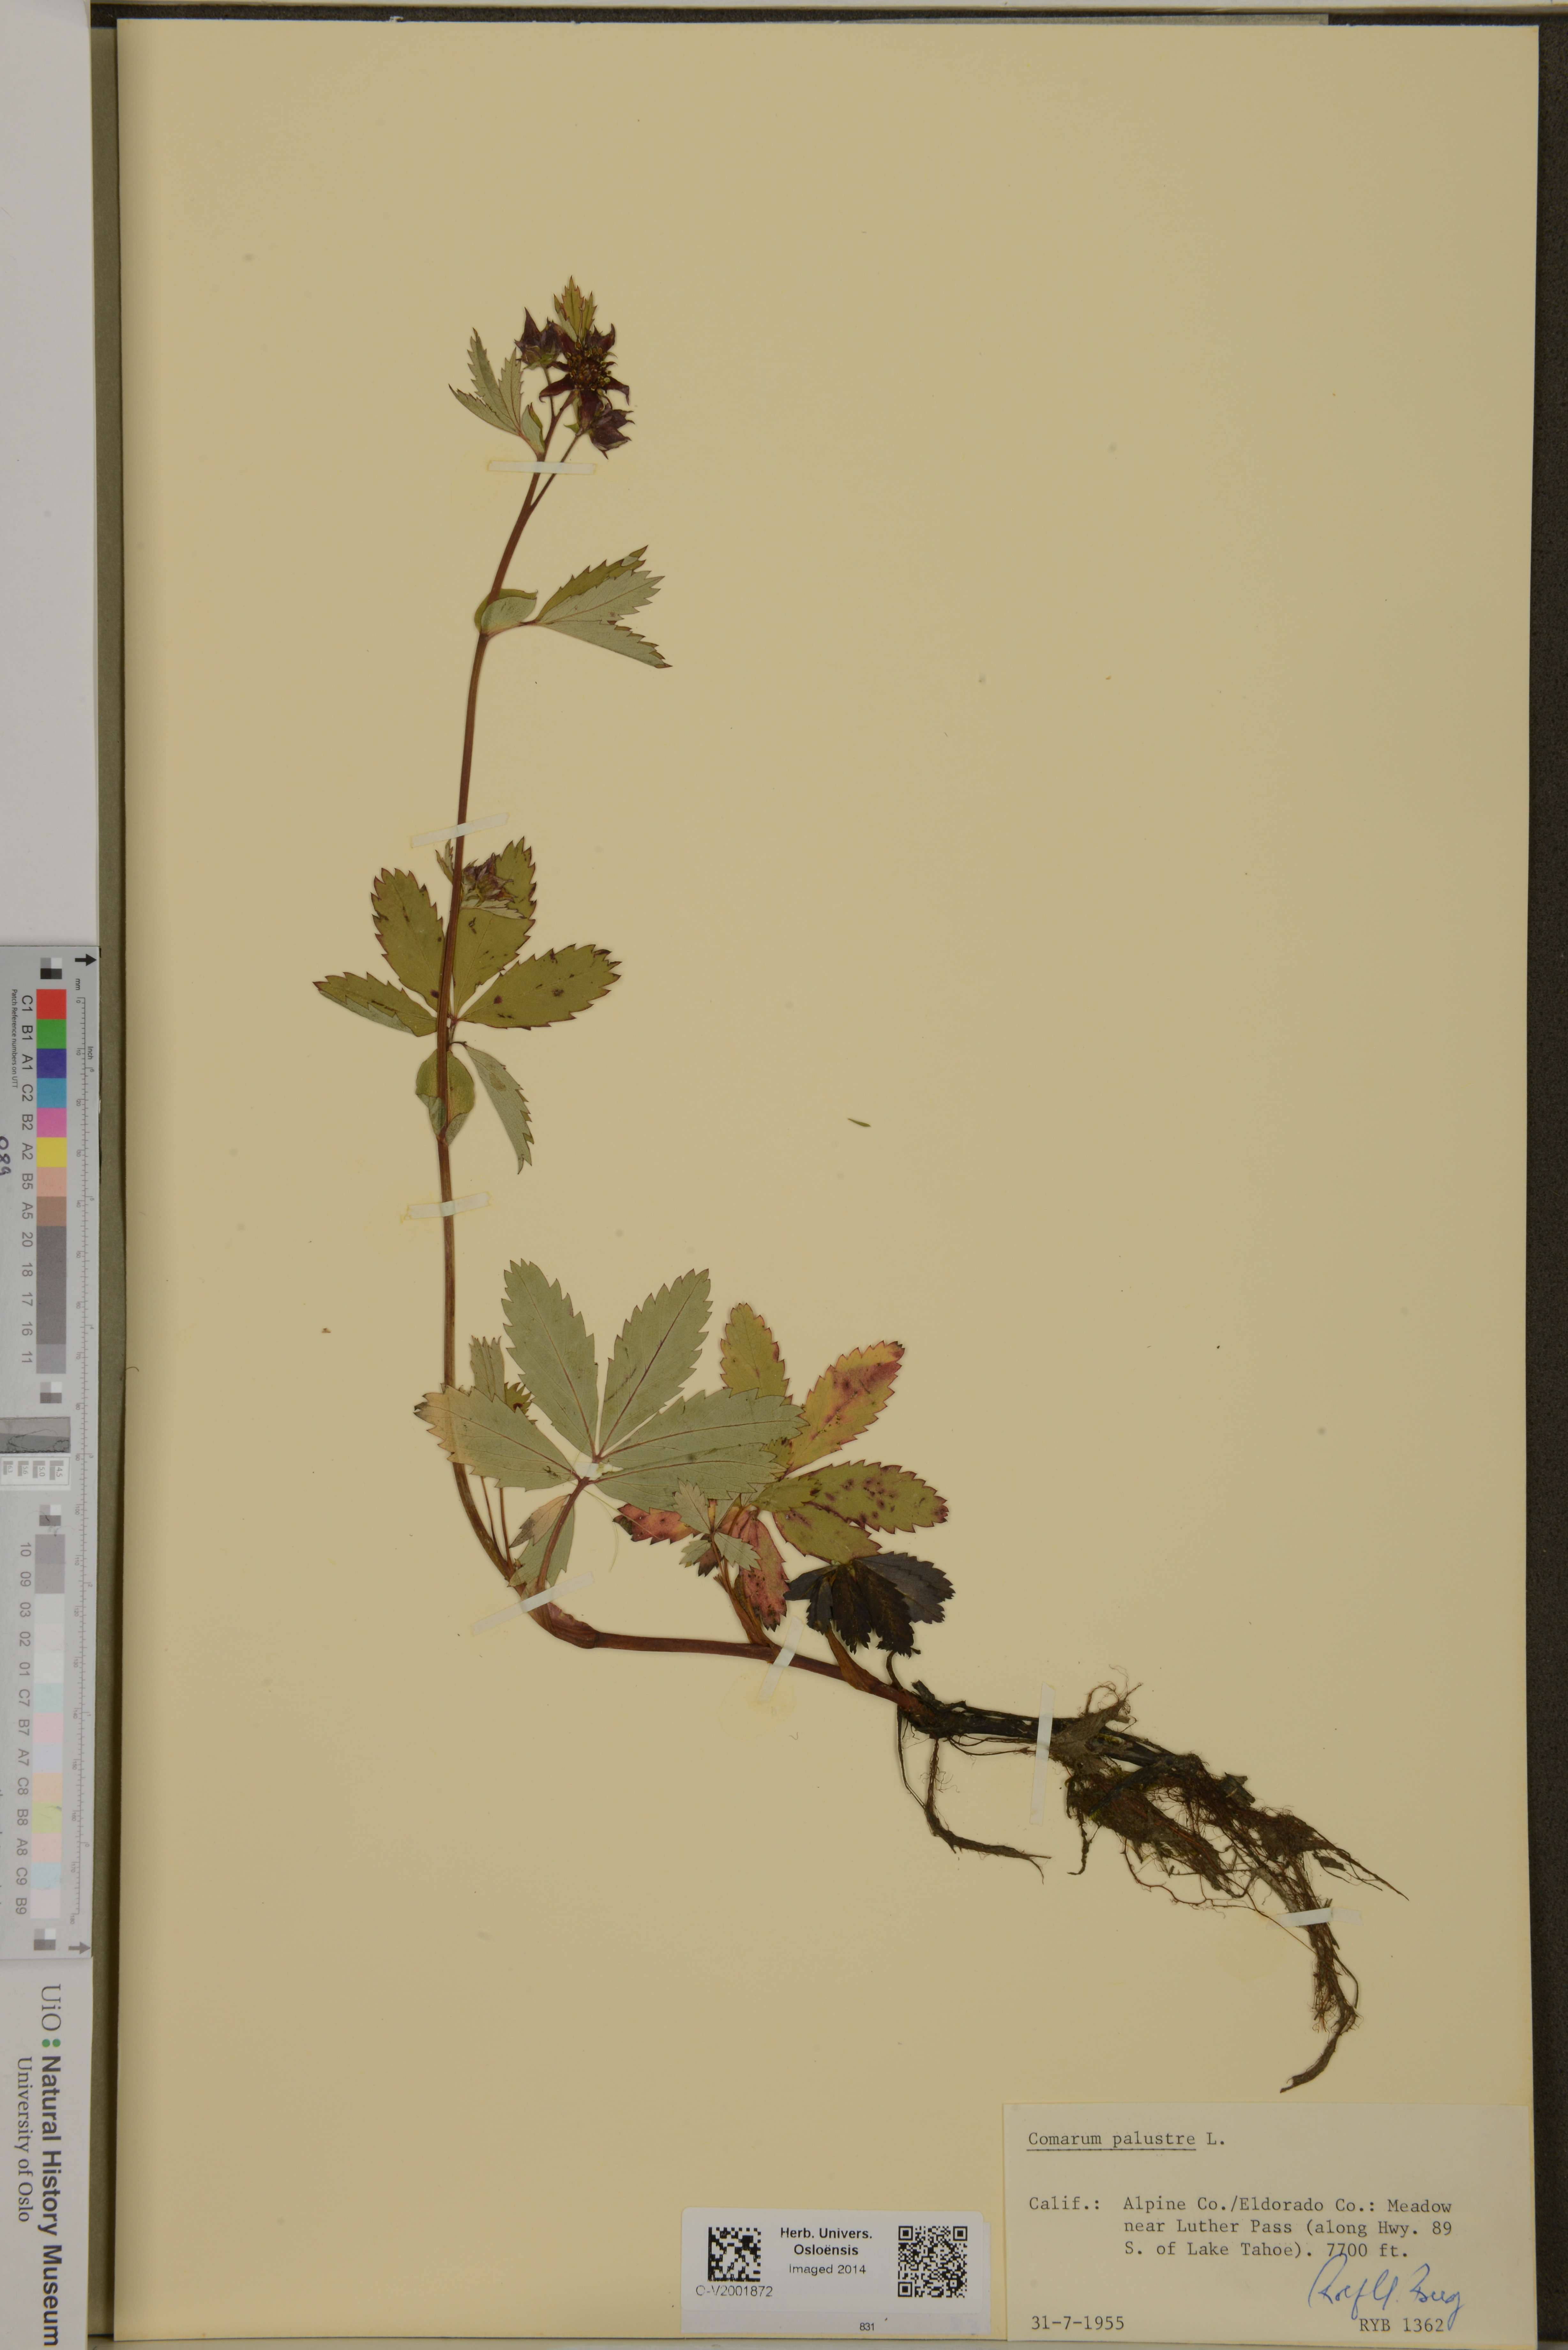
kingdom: Plantae
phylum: Tracheophyta
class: Magnoliopsida
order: Rosales
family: Rosaceae
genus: Comarum
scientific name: Comarum palustre
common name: Marsh cinquefoil
